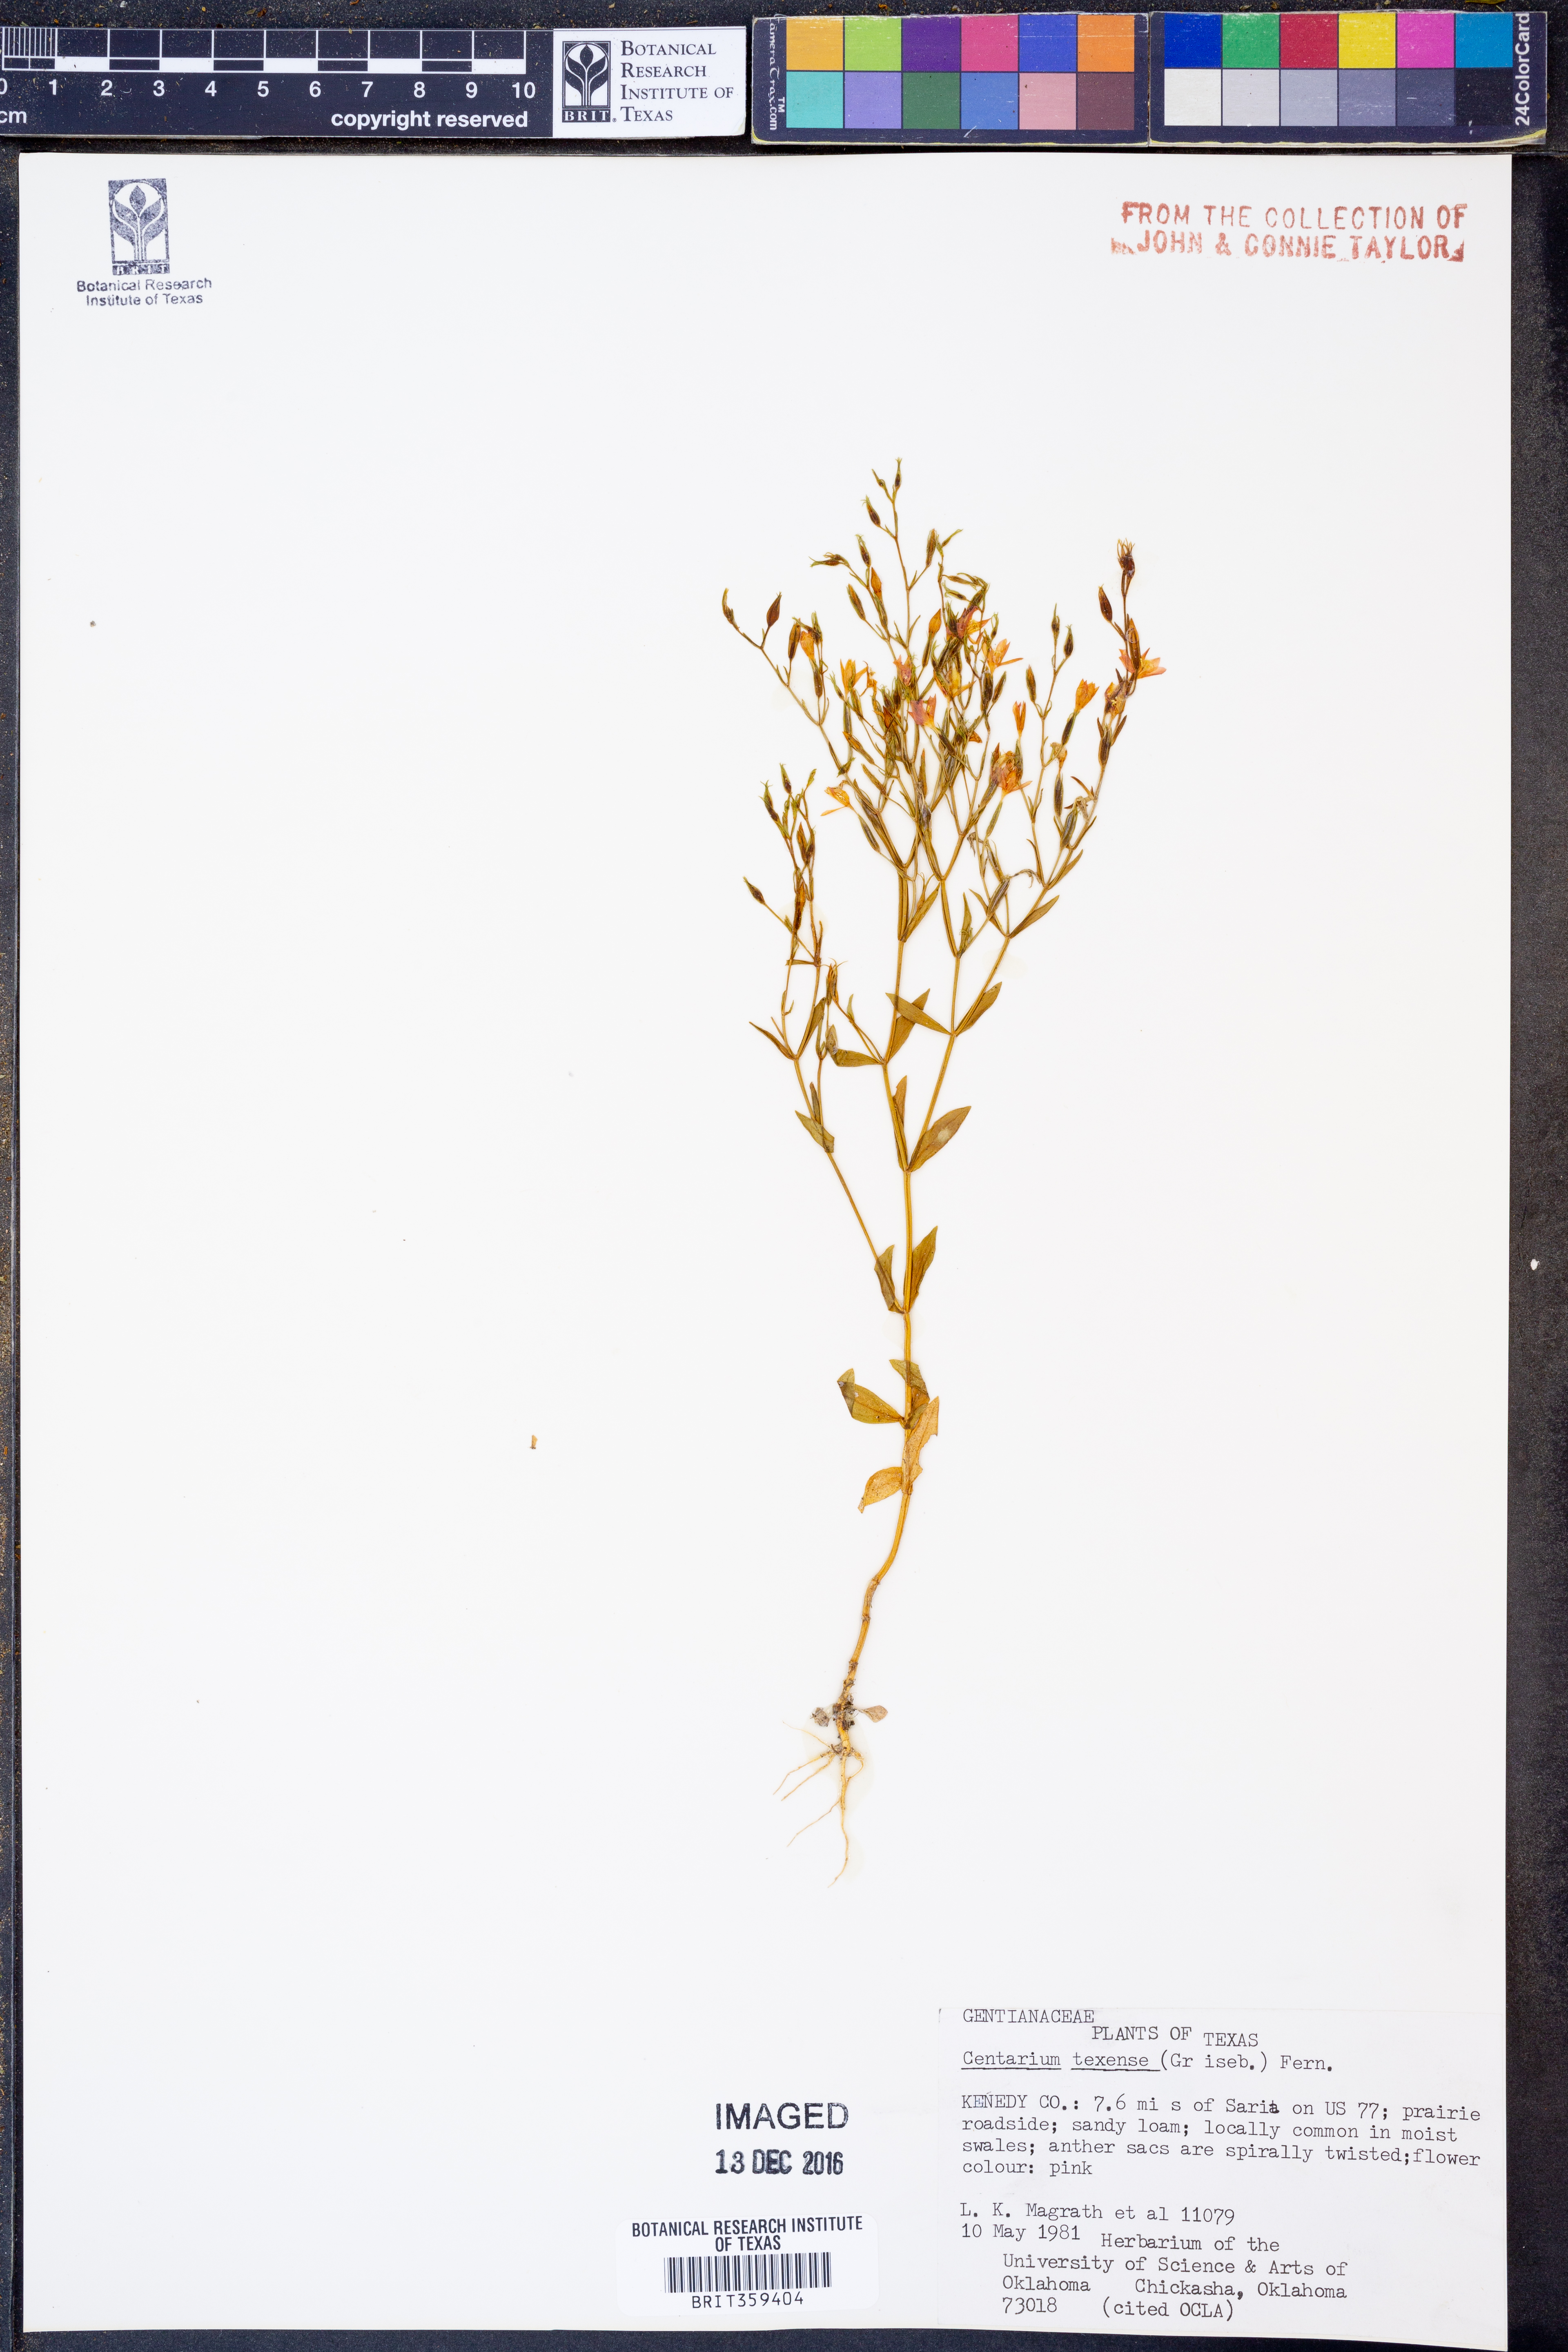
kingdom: Plantae
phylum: Tracheophyta
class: Magnoliopsida
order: Gentianales
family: Gentianaceae
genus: Zeltnera
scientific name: Zeltnera texensis
